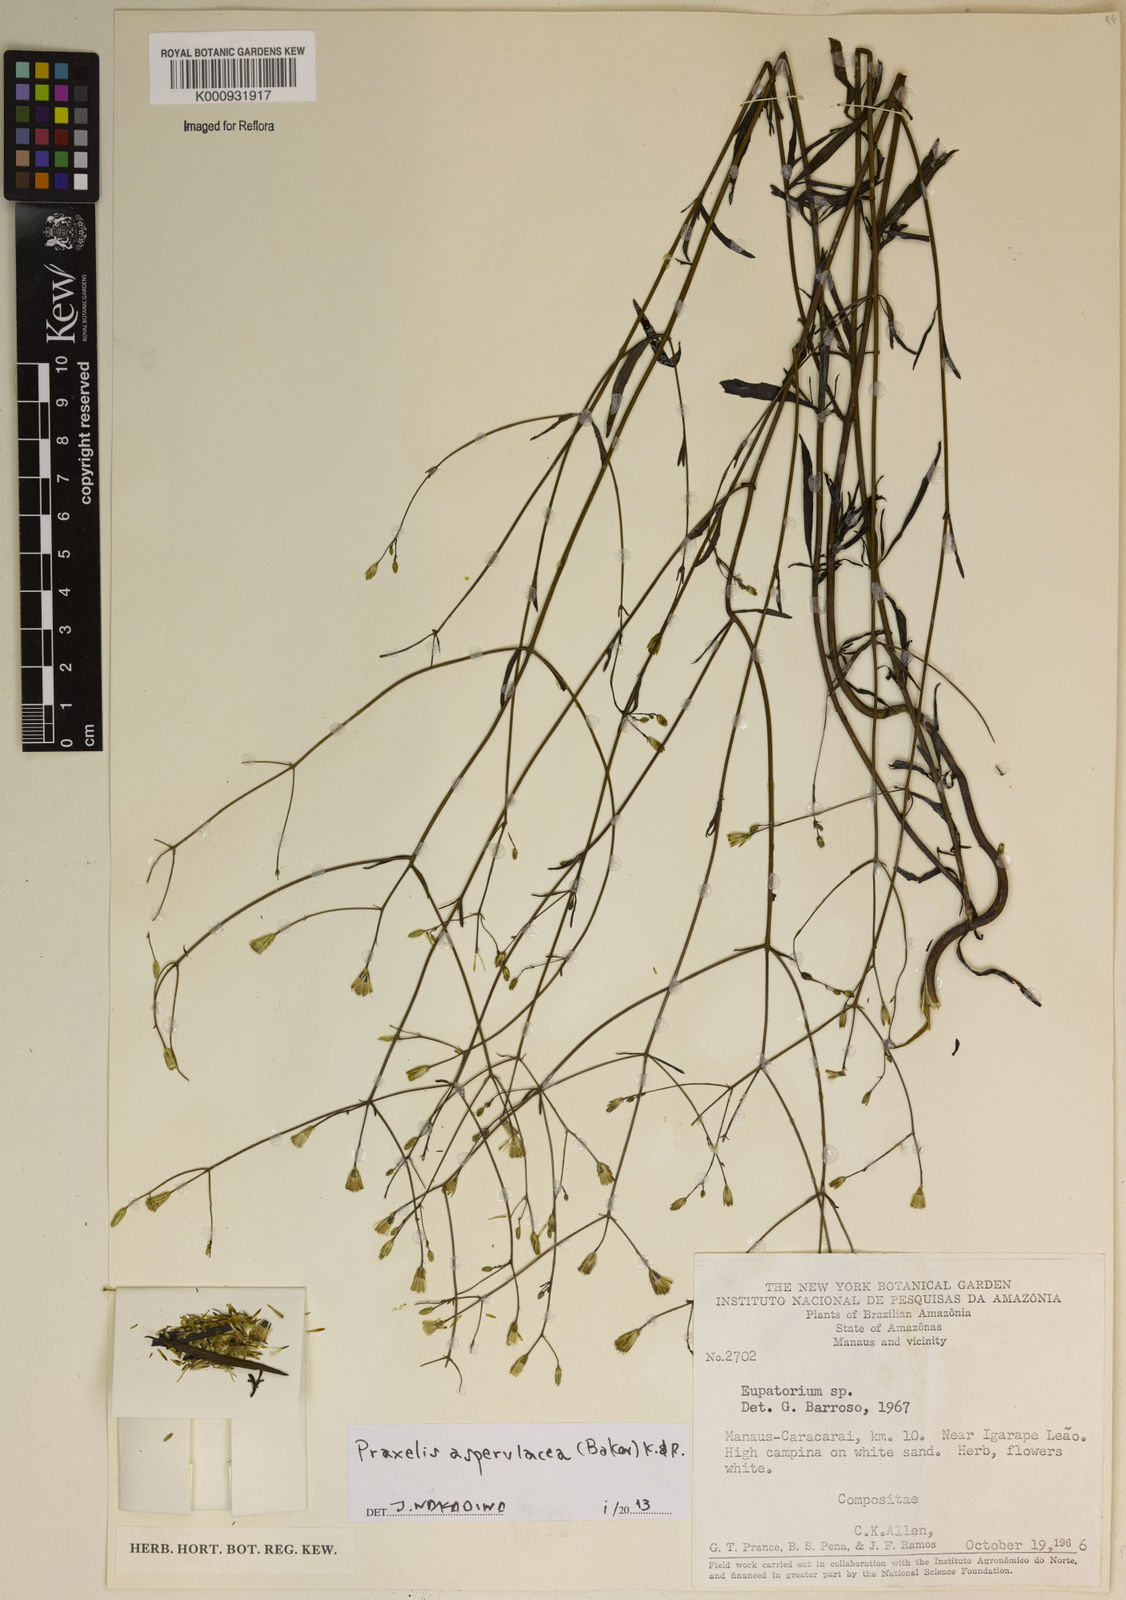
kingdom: Plantae
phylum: Tracheophyta
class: Magnoliopsida
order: Asterales
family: Asteraceae
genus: Praxelis
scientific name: Praxelis asperulacea
